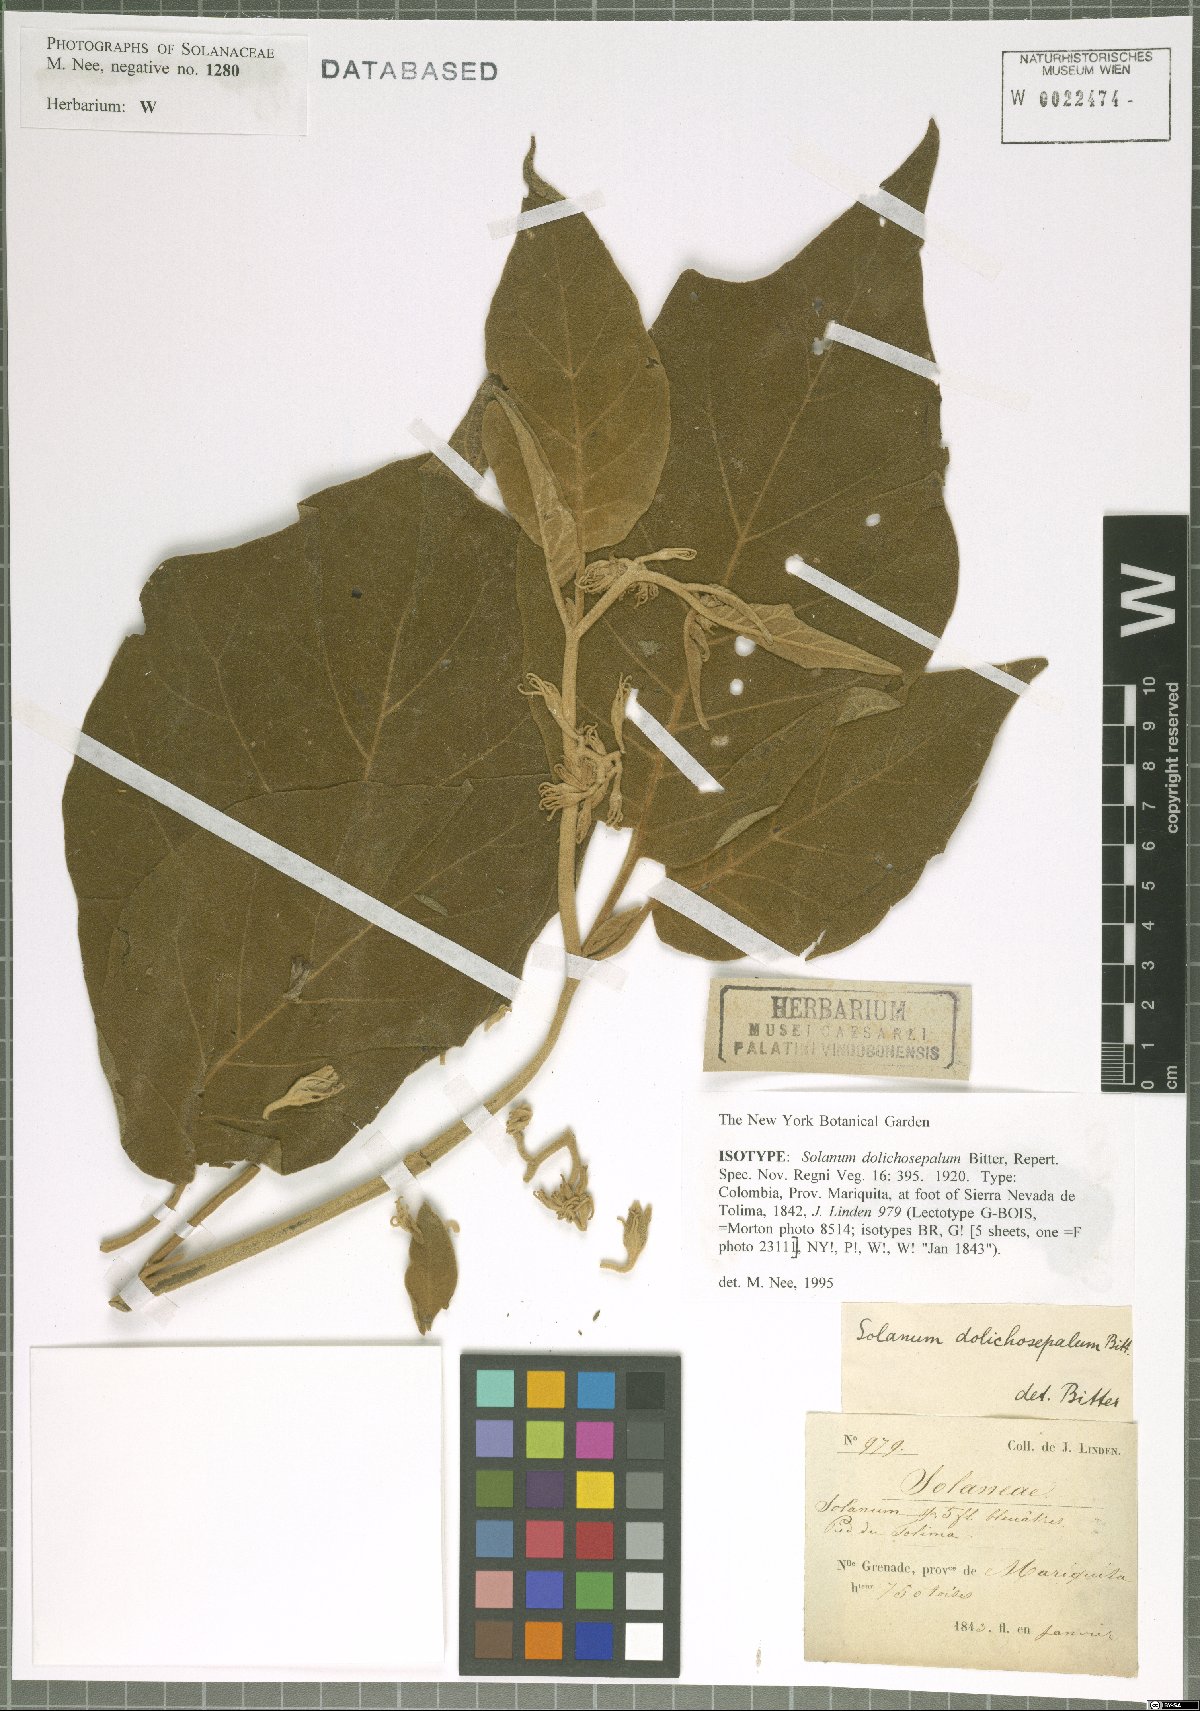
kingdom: Plantae
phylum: Tracheophyta
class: Magnoliopsida
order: Solanales
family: Solanaceae
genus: Solanum
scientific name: Solanum dolichosepalum
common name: Longsepal nightshade
